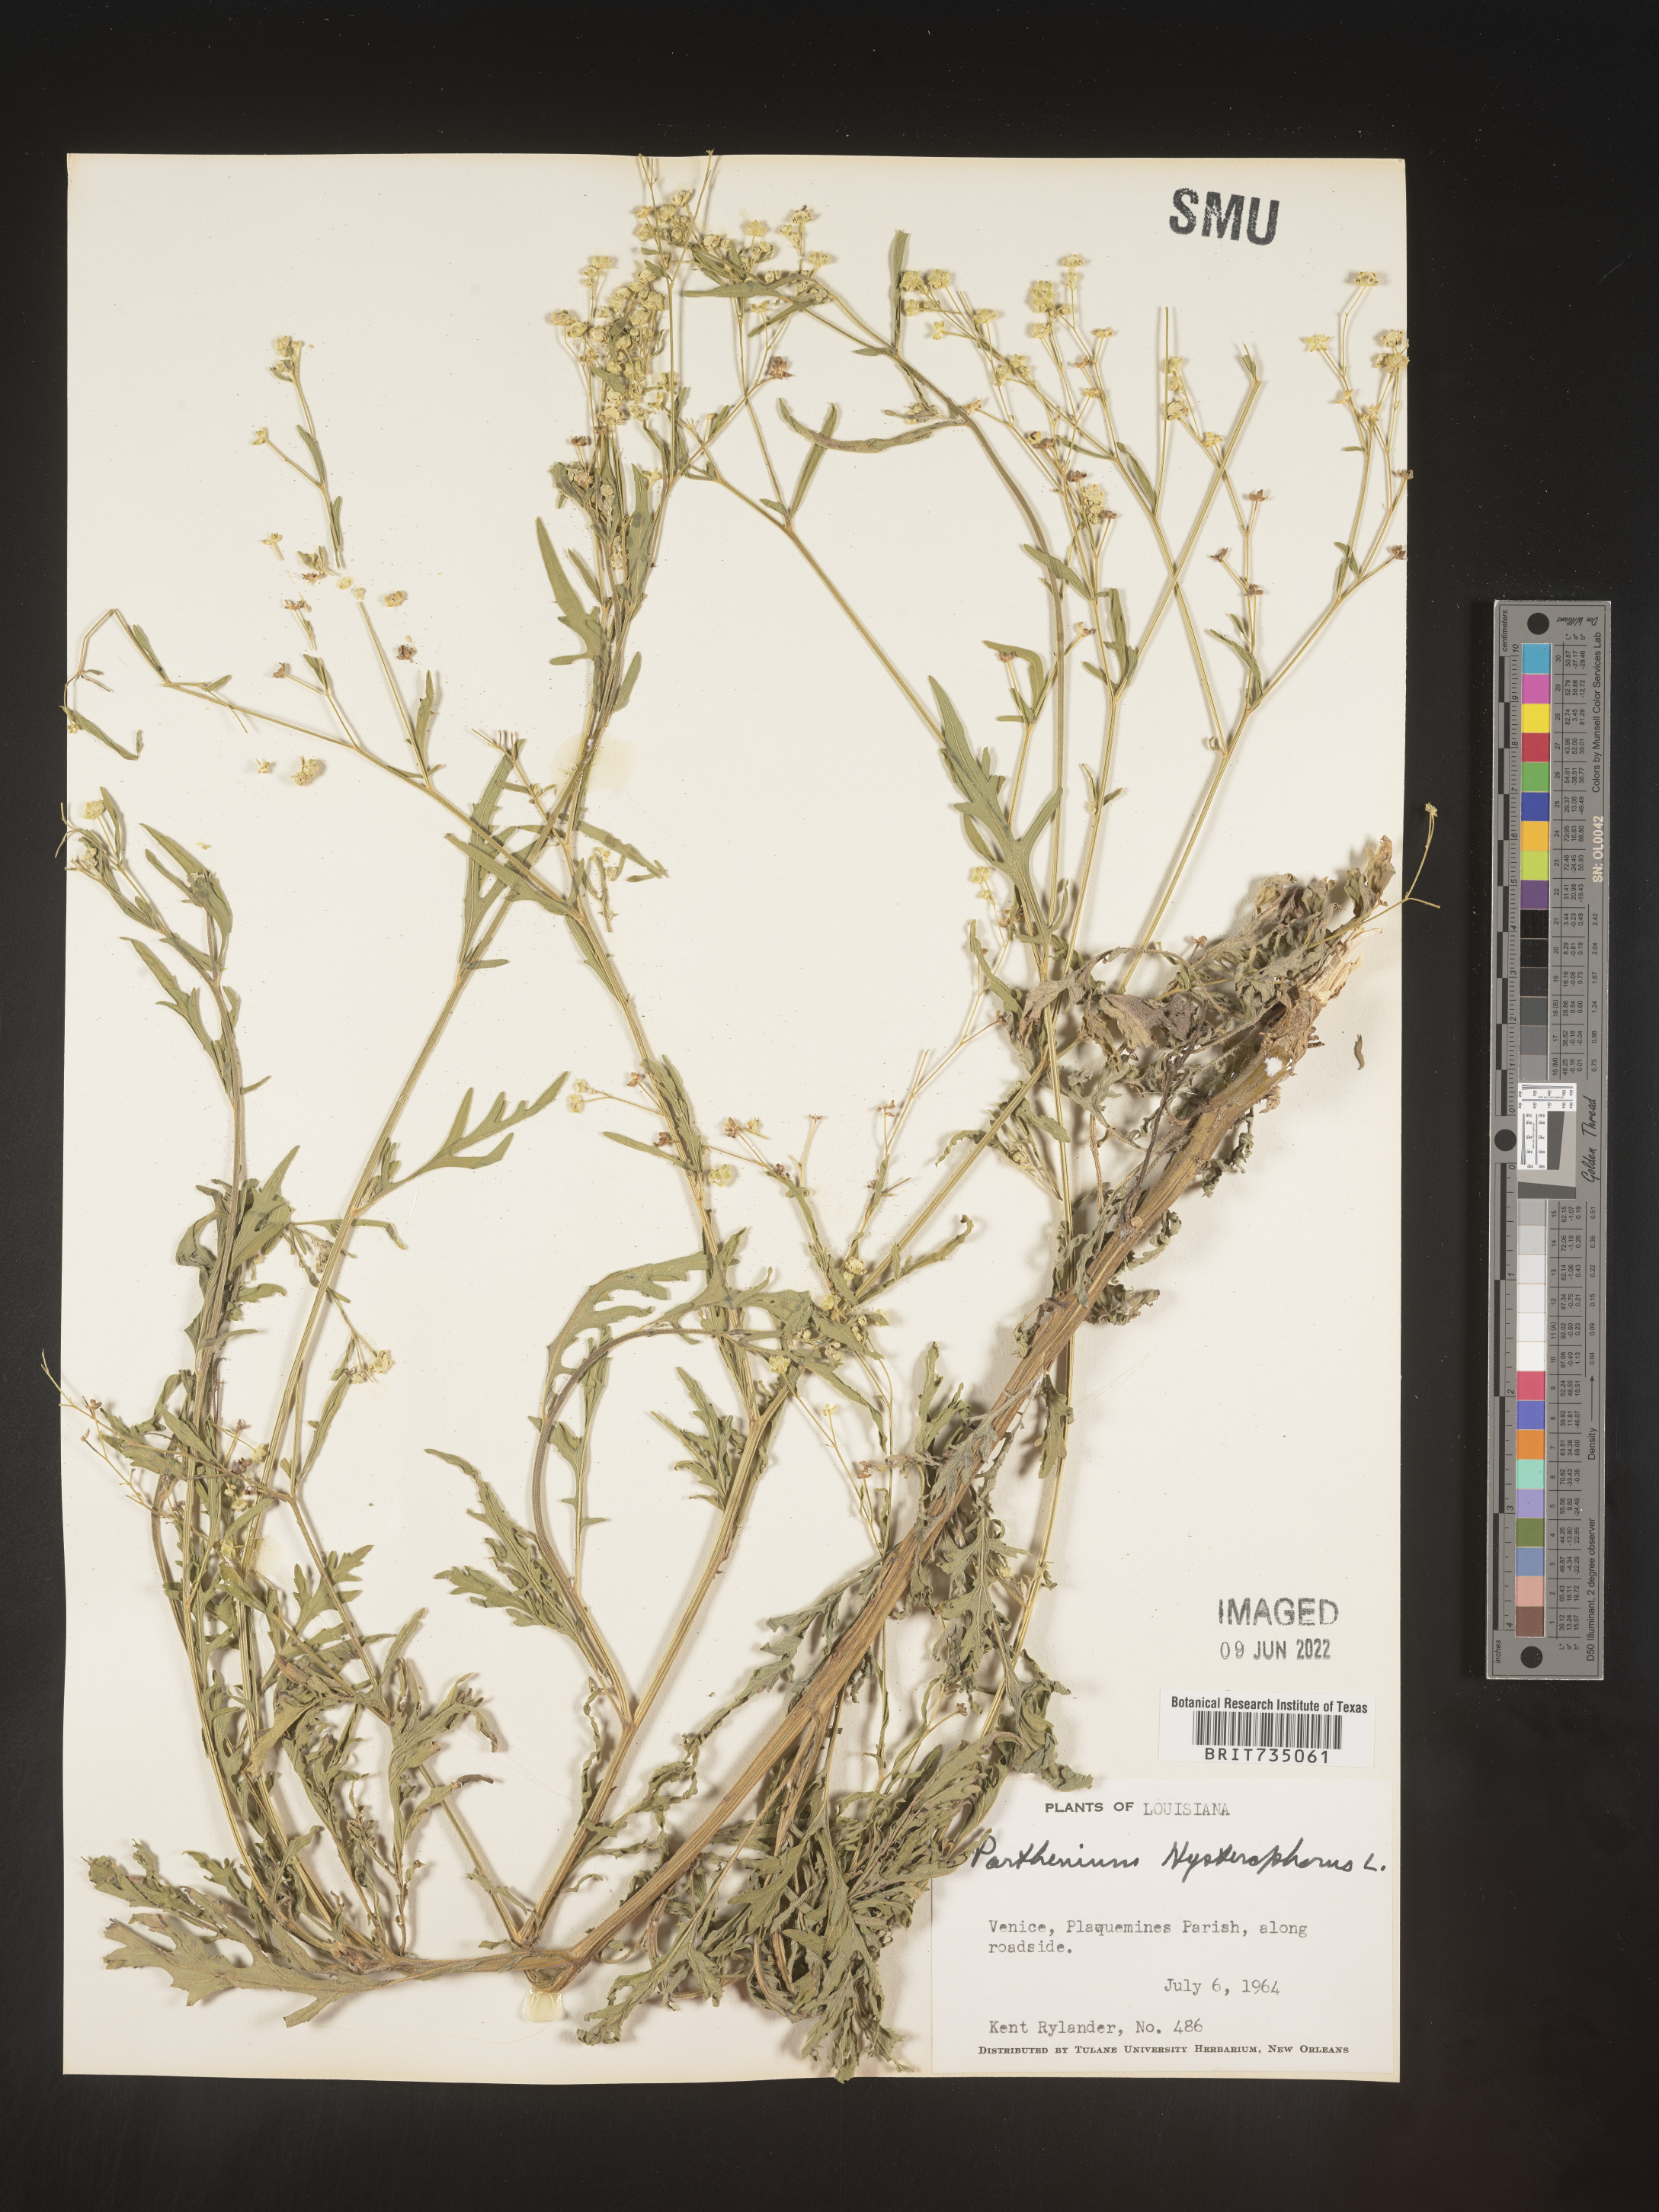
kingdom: Plantae
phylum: Tracheophyta
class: Magnoliopsida
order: Asterales
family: Asteraceae
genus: Parthenium
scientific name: Parthenium hysterophorus
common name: Santa maria feverfew
